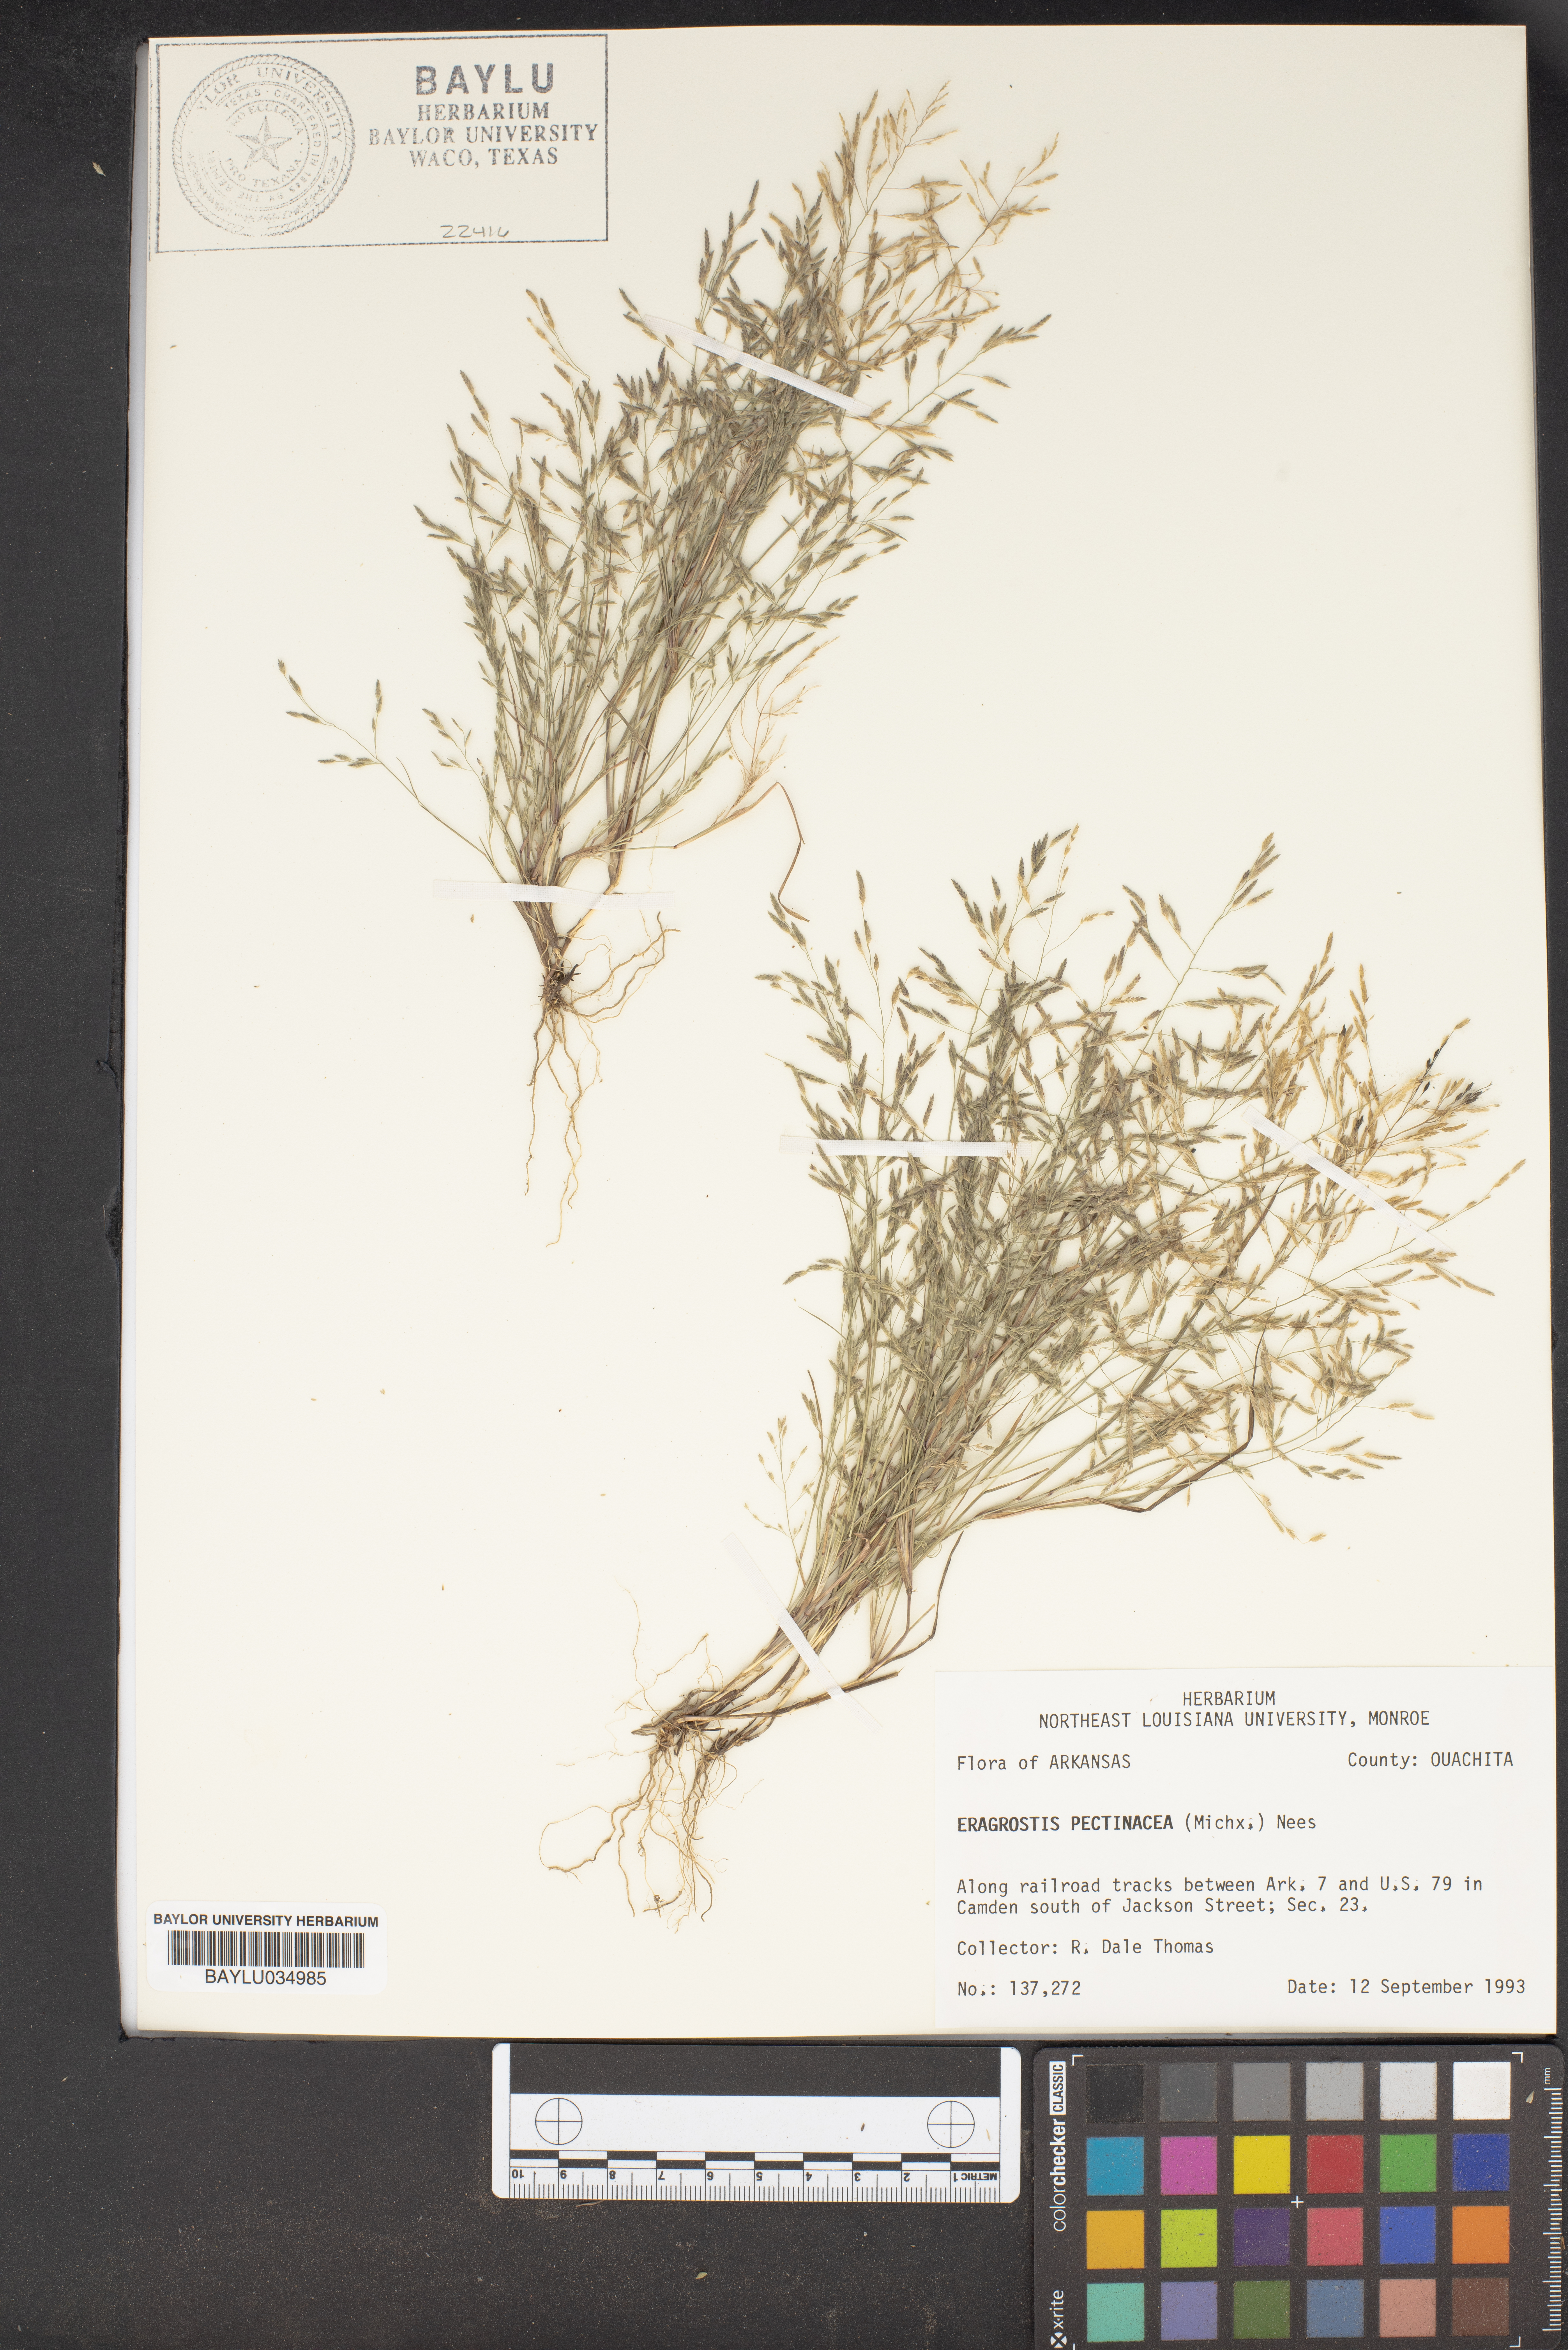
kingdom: Plantae
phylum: Tracheophyta
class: Liliopsida
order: Poales
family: Poaceae
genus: Eragrostis
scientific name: Eragrostis pectinacea
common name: Tufted lovegrass
